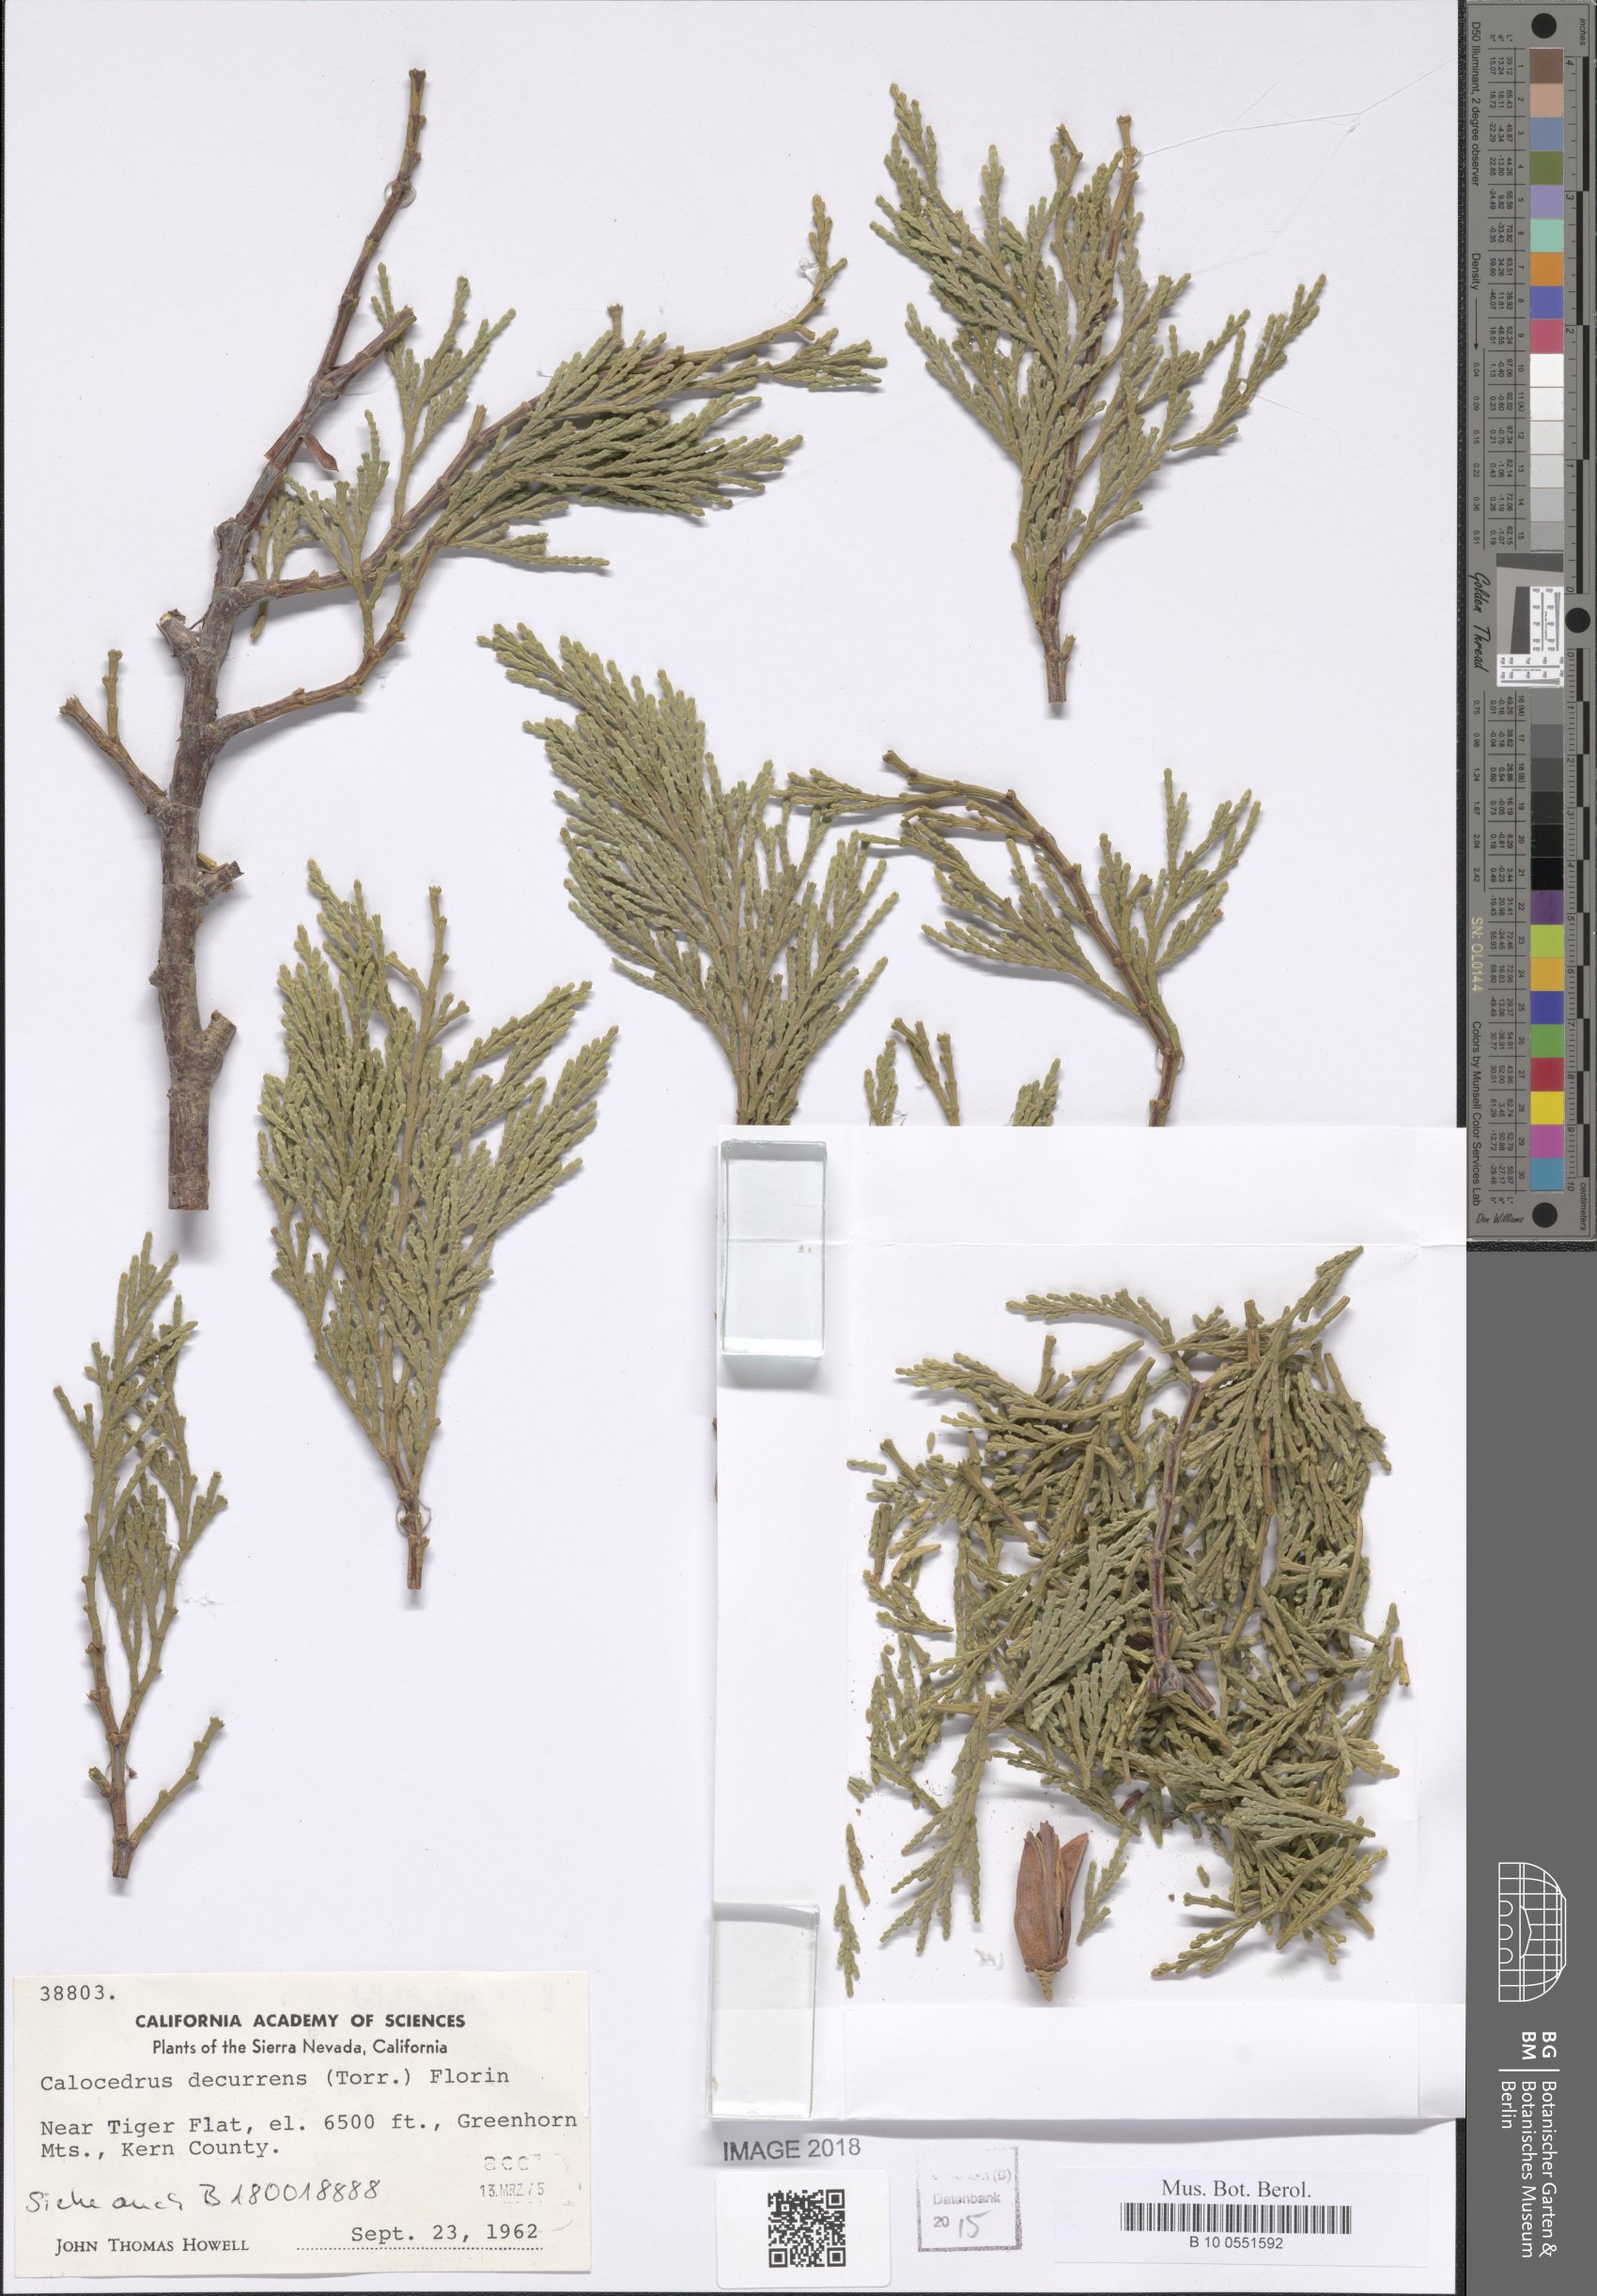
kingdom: Plantae
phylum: Tracheophyta
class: Pinopsida
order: Pinales
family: Cupressaceae
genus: Calocedrus
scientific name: Calocedrus decurrens
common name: Californian incense-cedar
